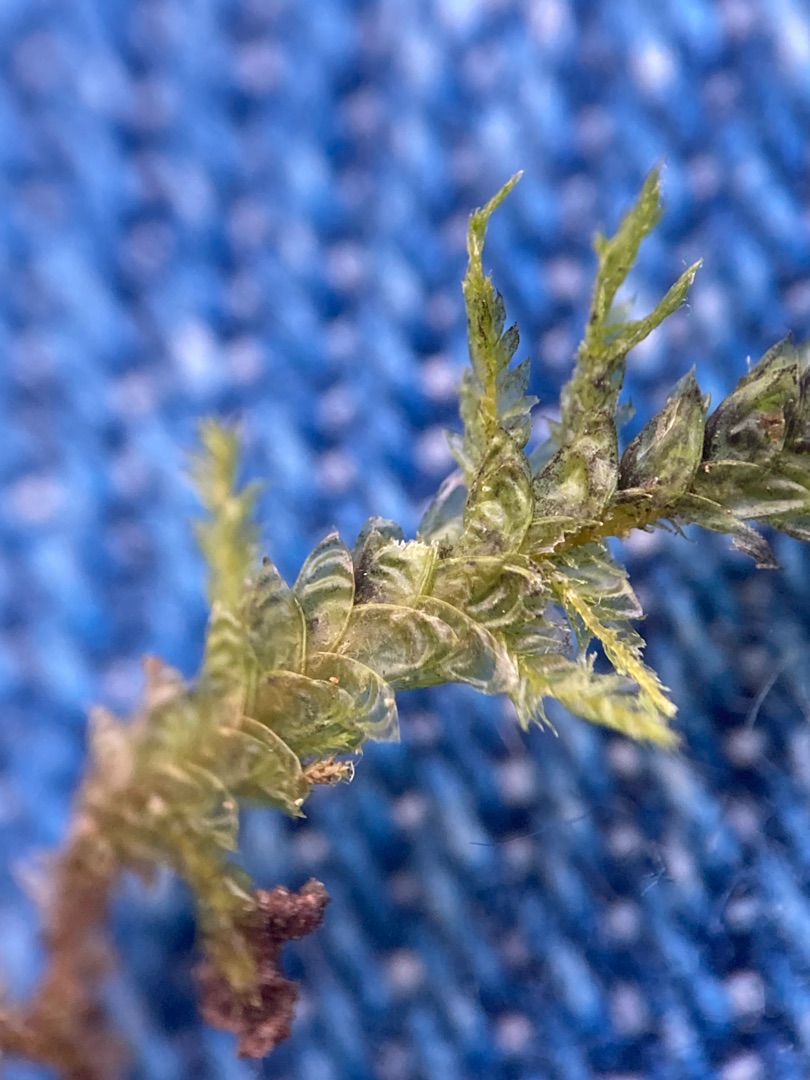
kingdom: Plantae
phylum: Bryophyta
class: Bryopsida
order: Hypnales
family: Neckeraceae
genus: Neckera
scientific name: Neckera pumila
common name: Lav fladmos
